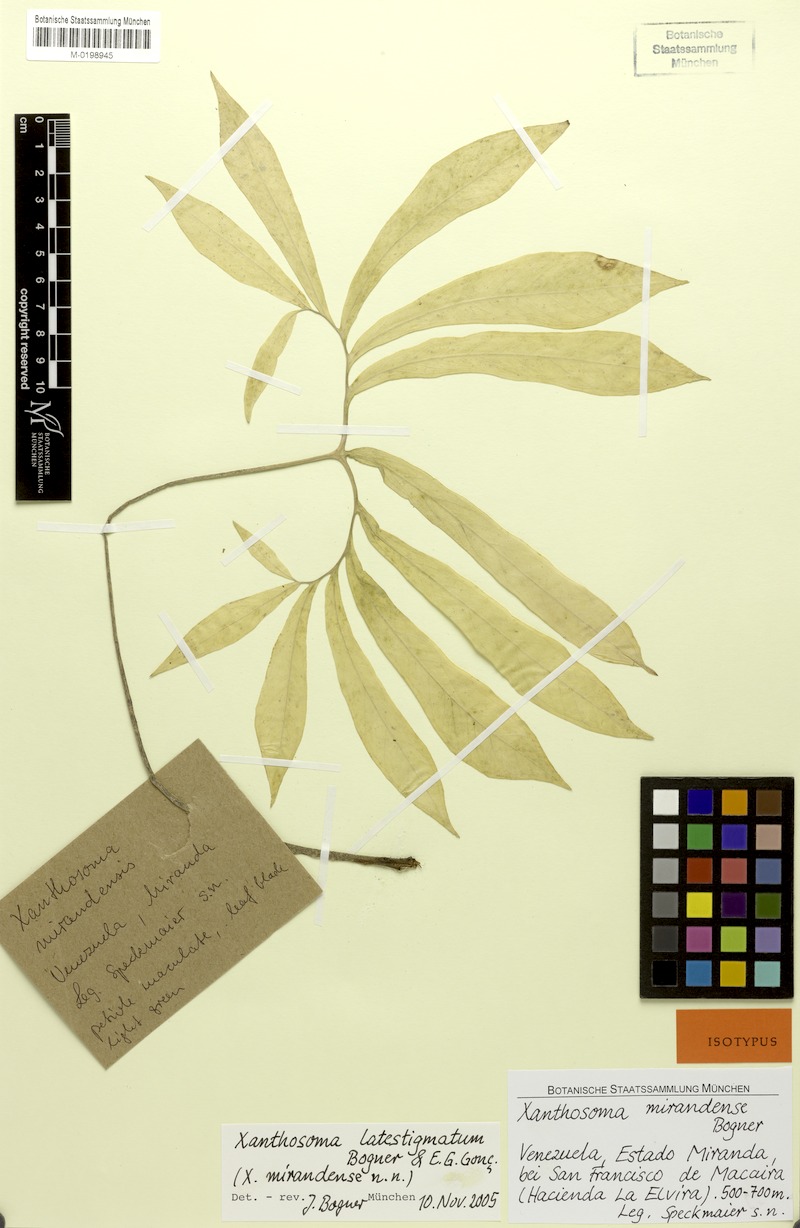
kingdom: Plantae
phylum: Tracheophyta
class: Liliopsida
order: Alismatales
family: Araceae
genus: Xanthosoma
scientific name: Xanthosoma latestigmatum
